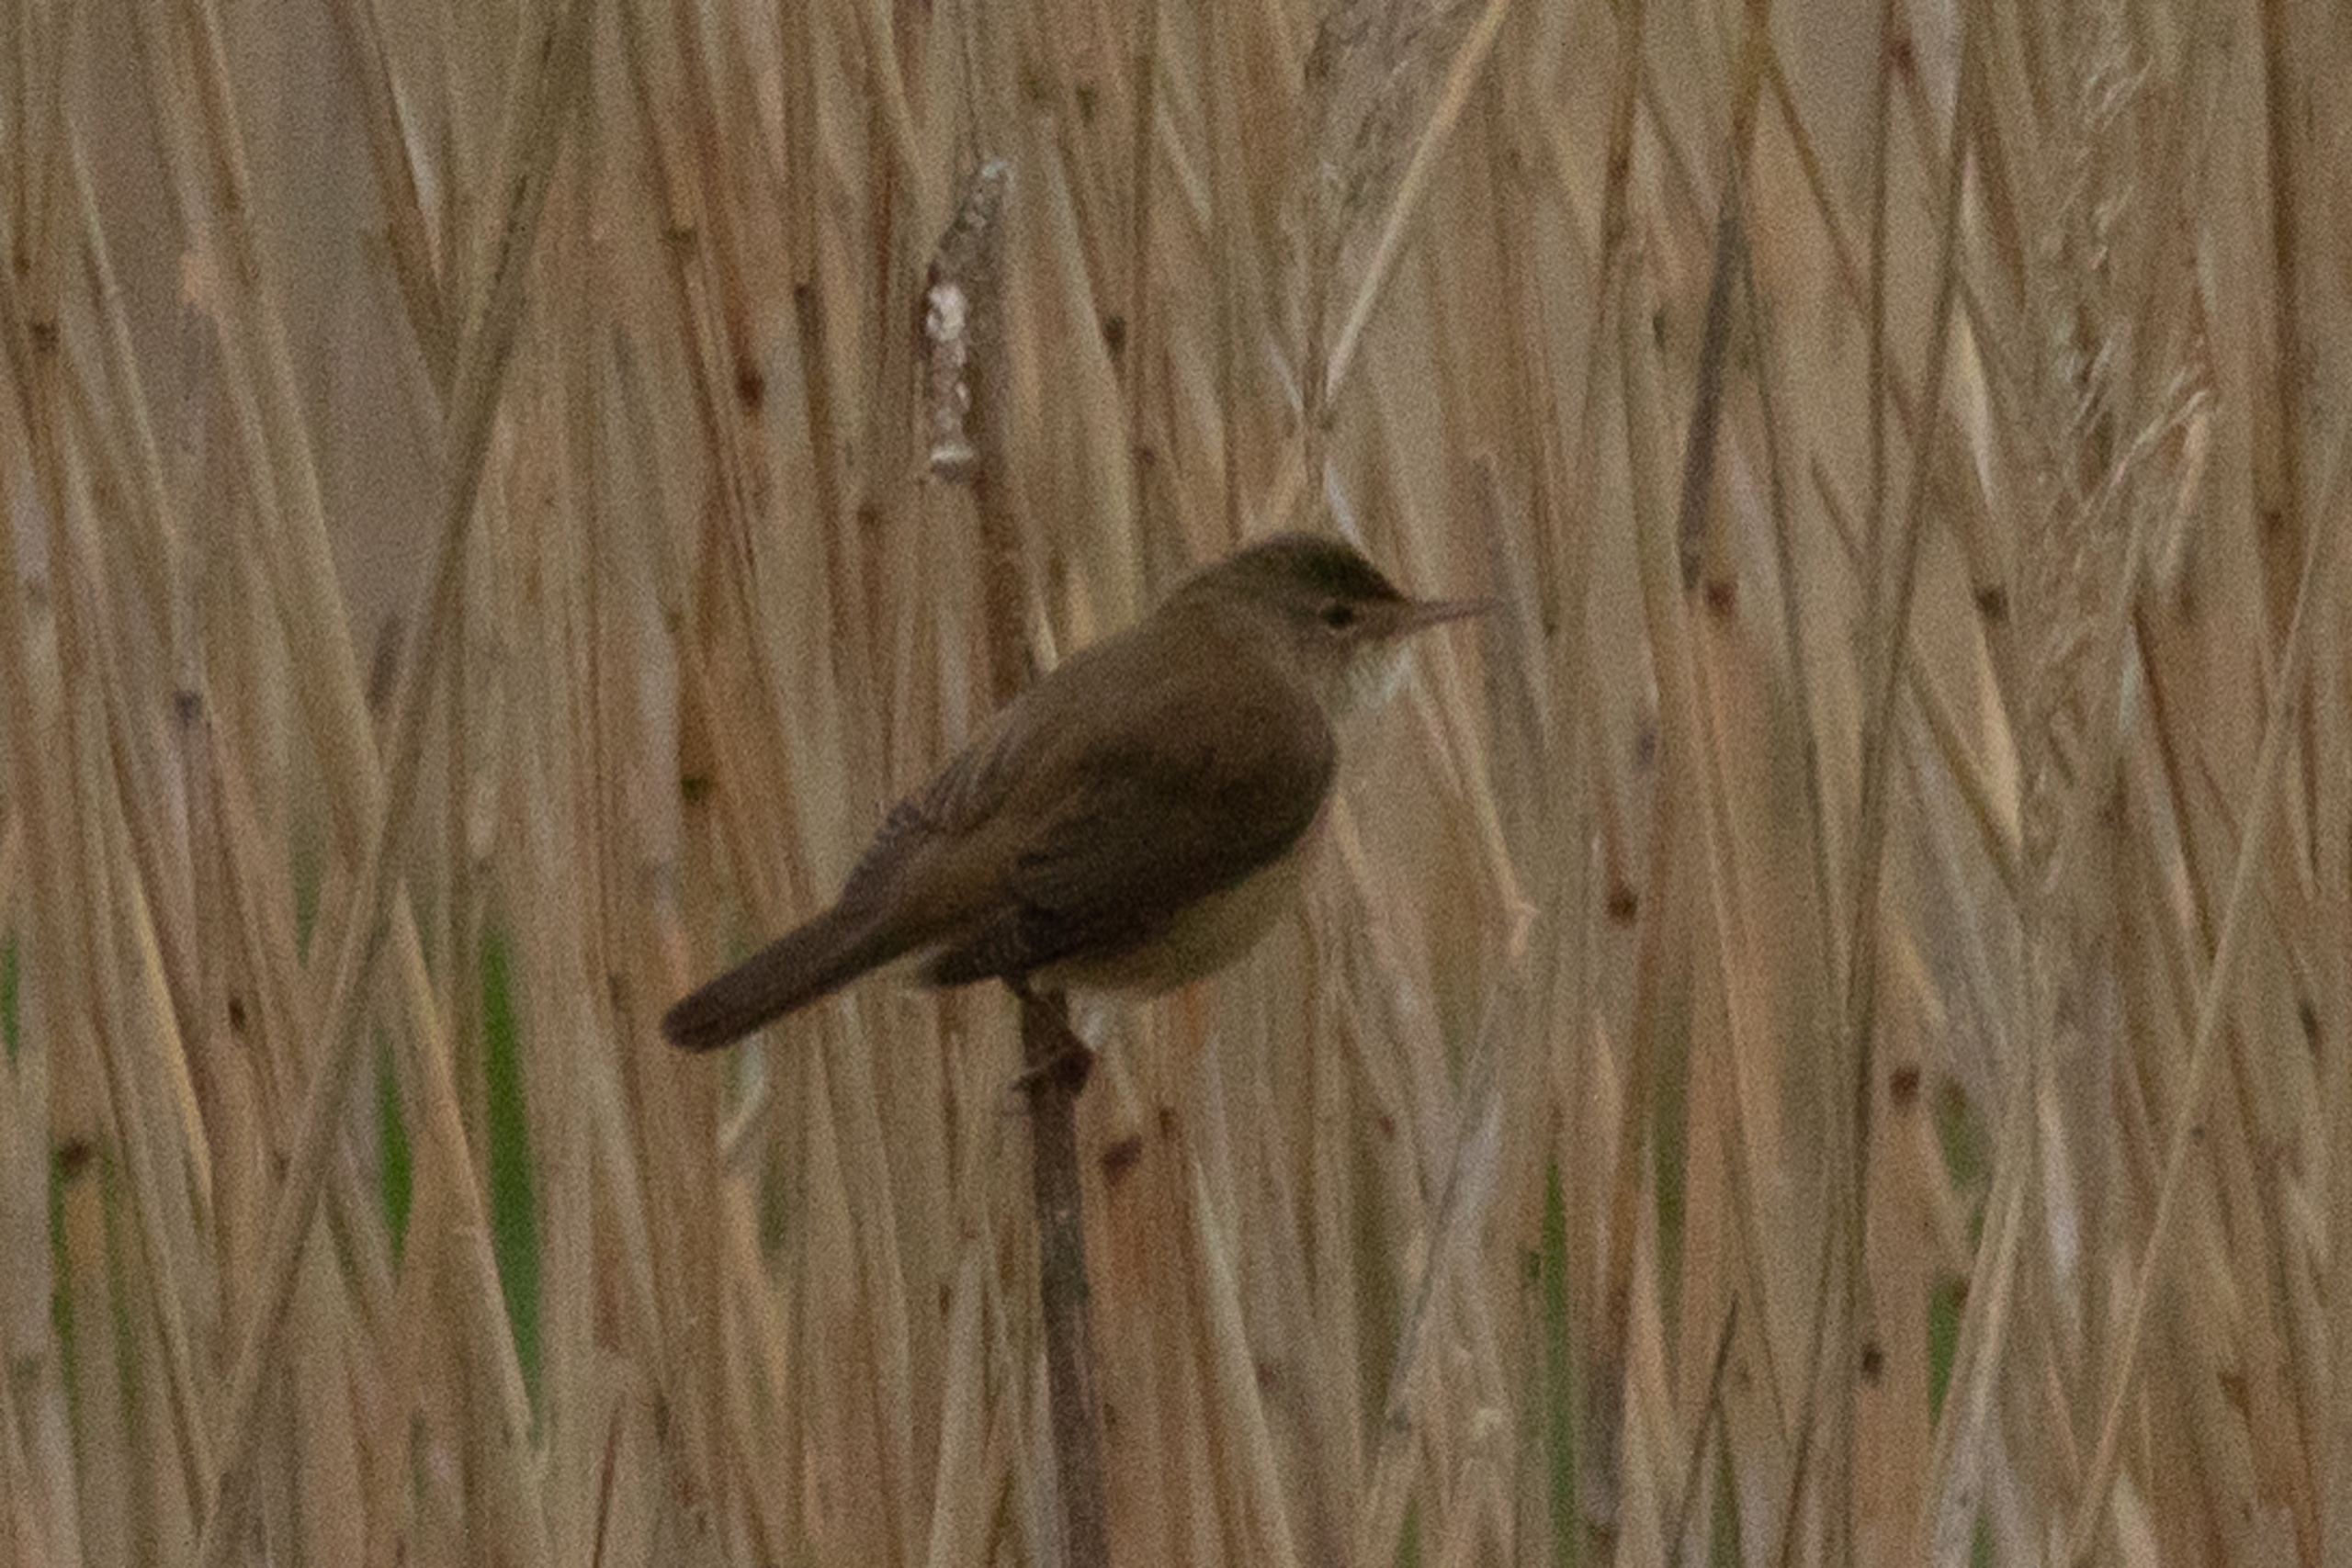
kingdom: Animalia
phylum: Chordata
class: Aves
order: Passeriformes
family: Acrocephalidae
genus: Acrocephalus
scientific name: Acrocephalus scirpaceus
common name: Rørsanger
